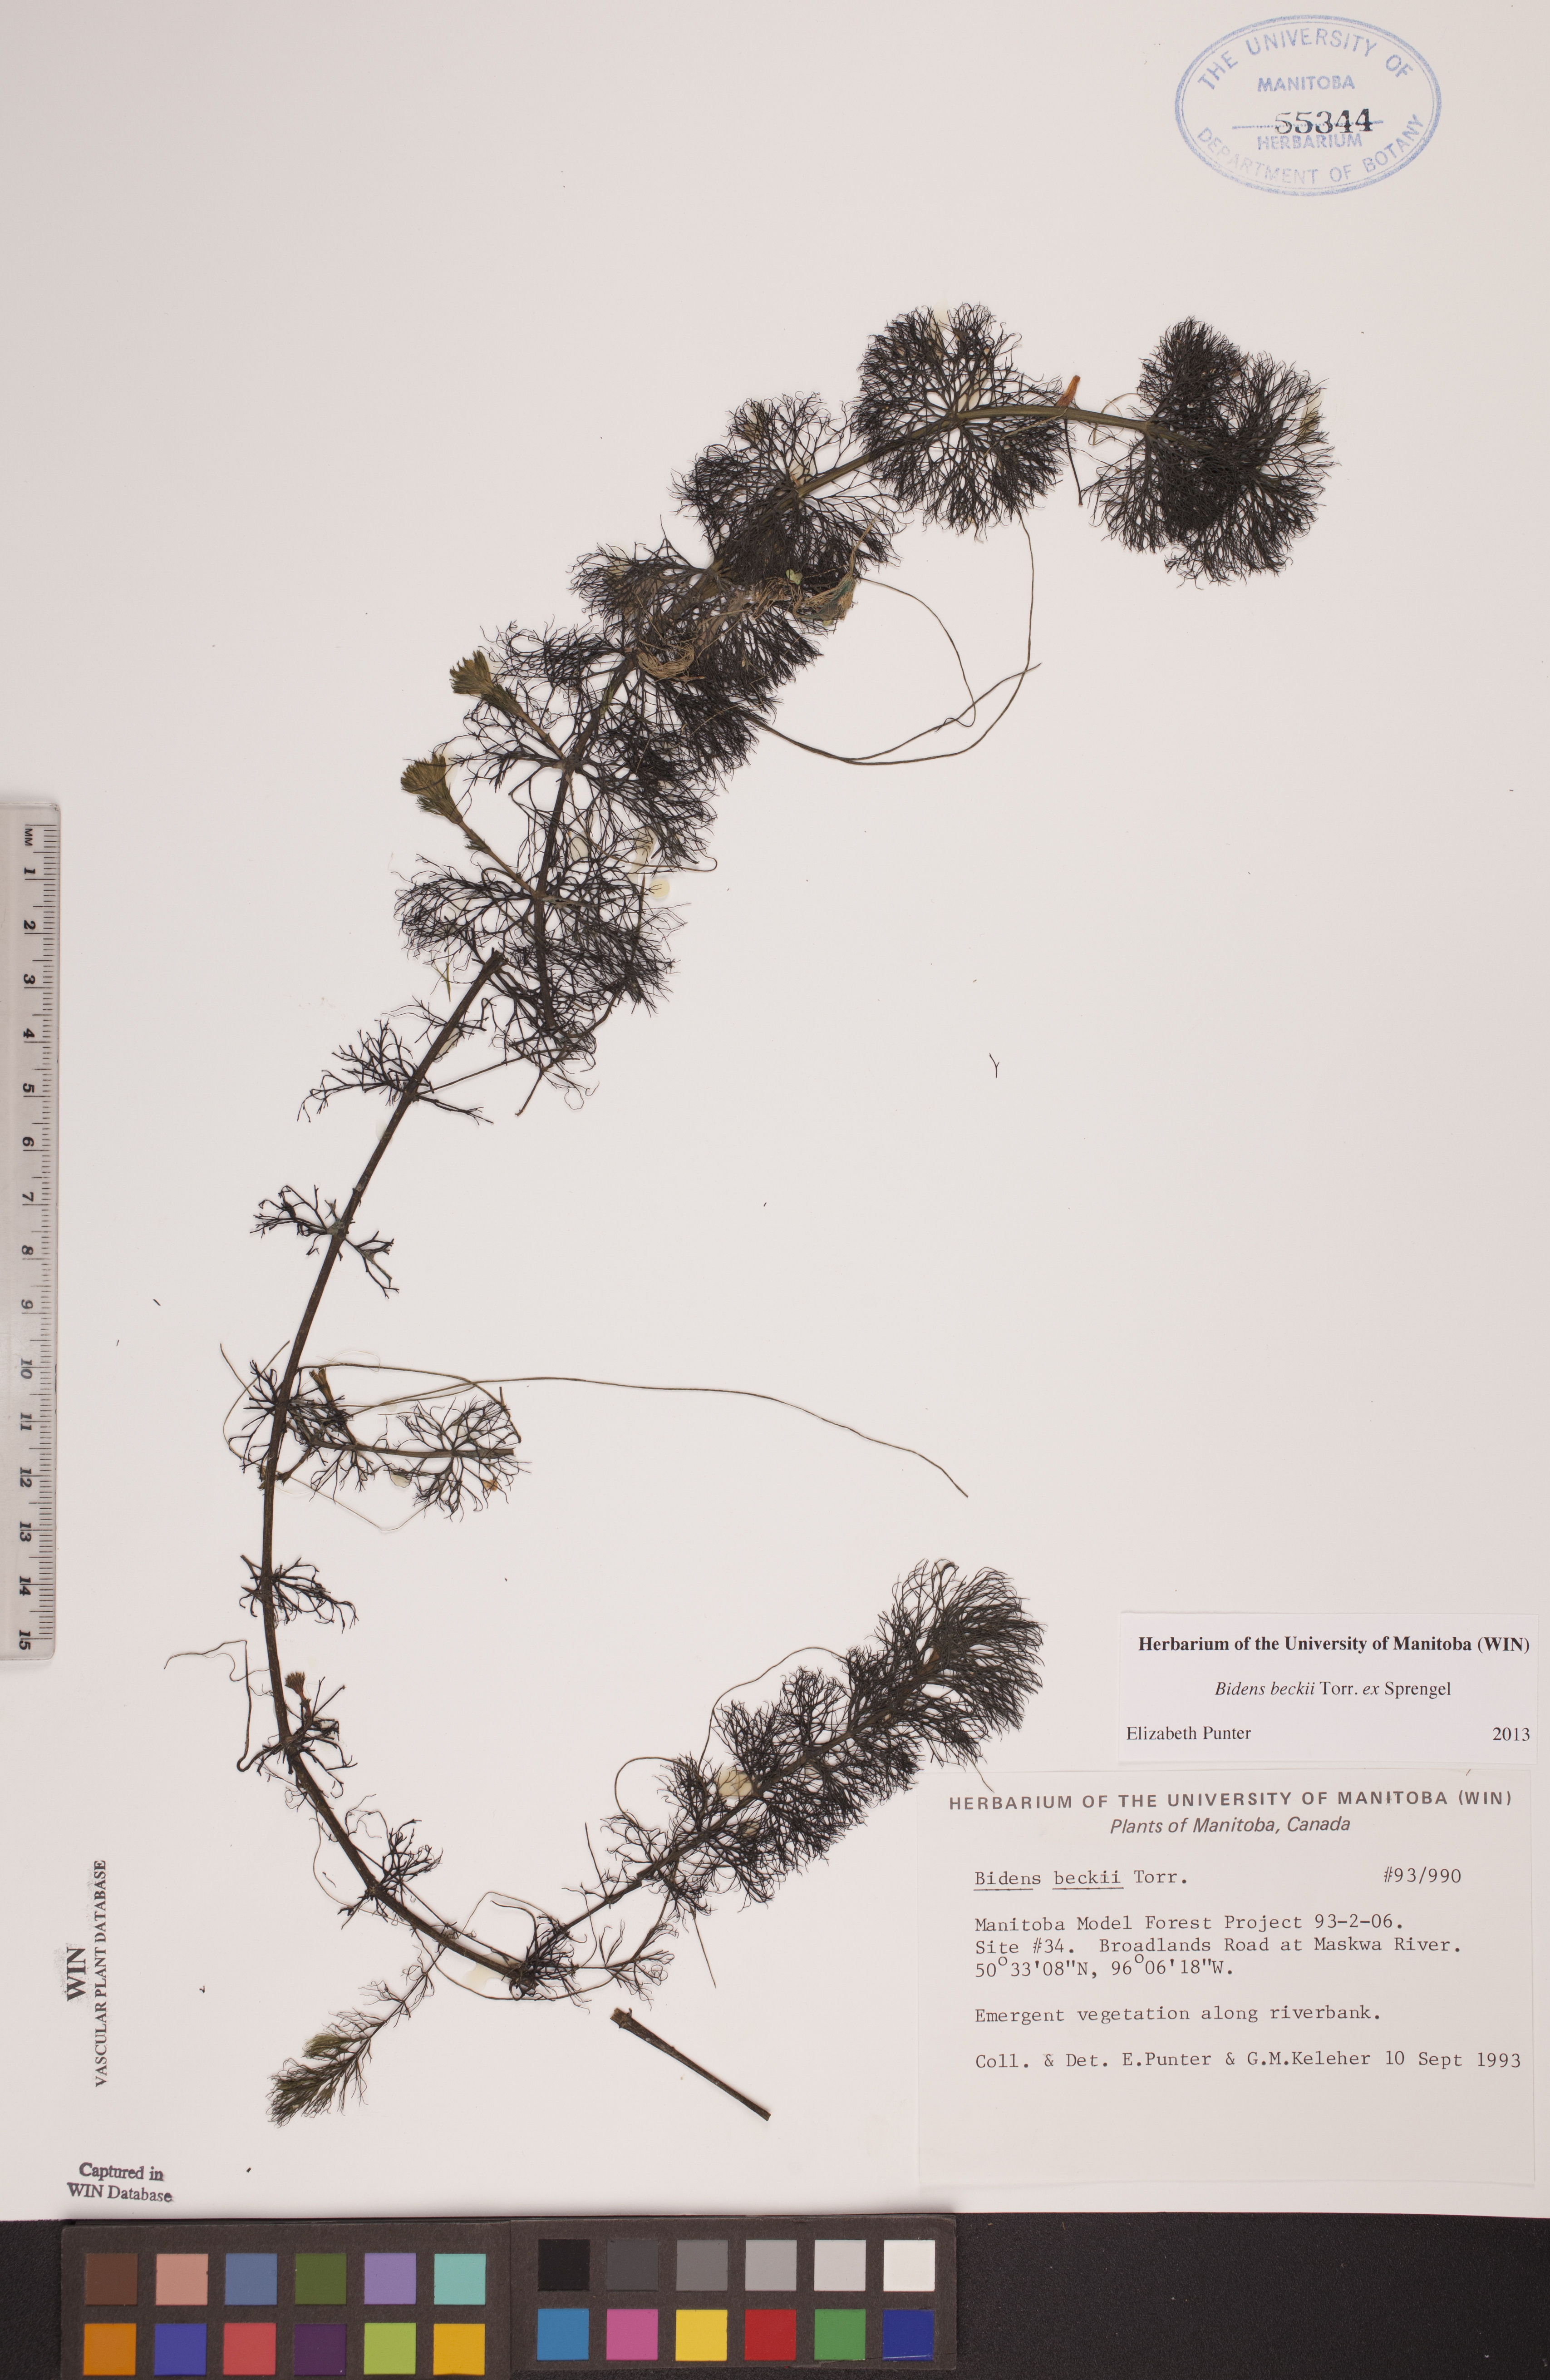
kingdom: Plantae
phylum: Tracheophyta
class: Magnoliopsida
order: Asterales
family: Asteraceae
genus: Bidens
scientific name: Bidens beckii
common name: Beck's beggarticks
